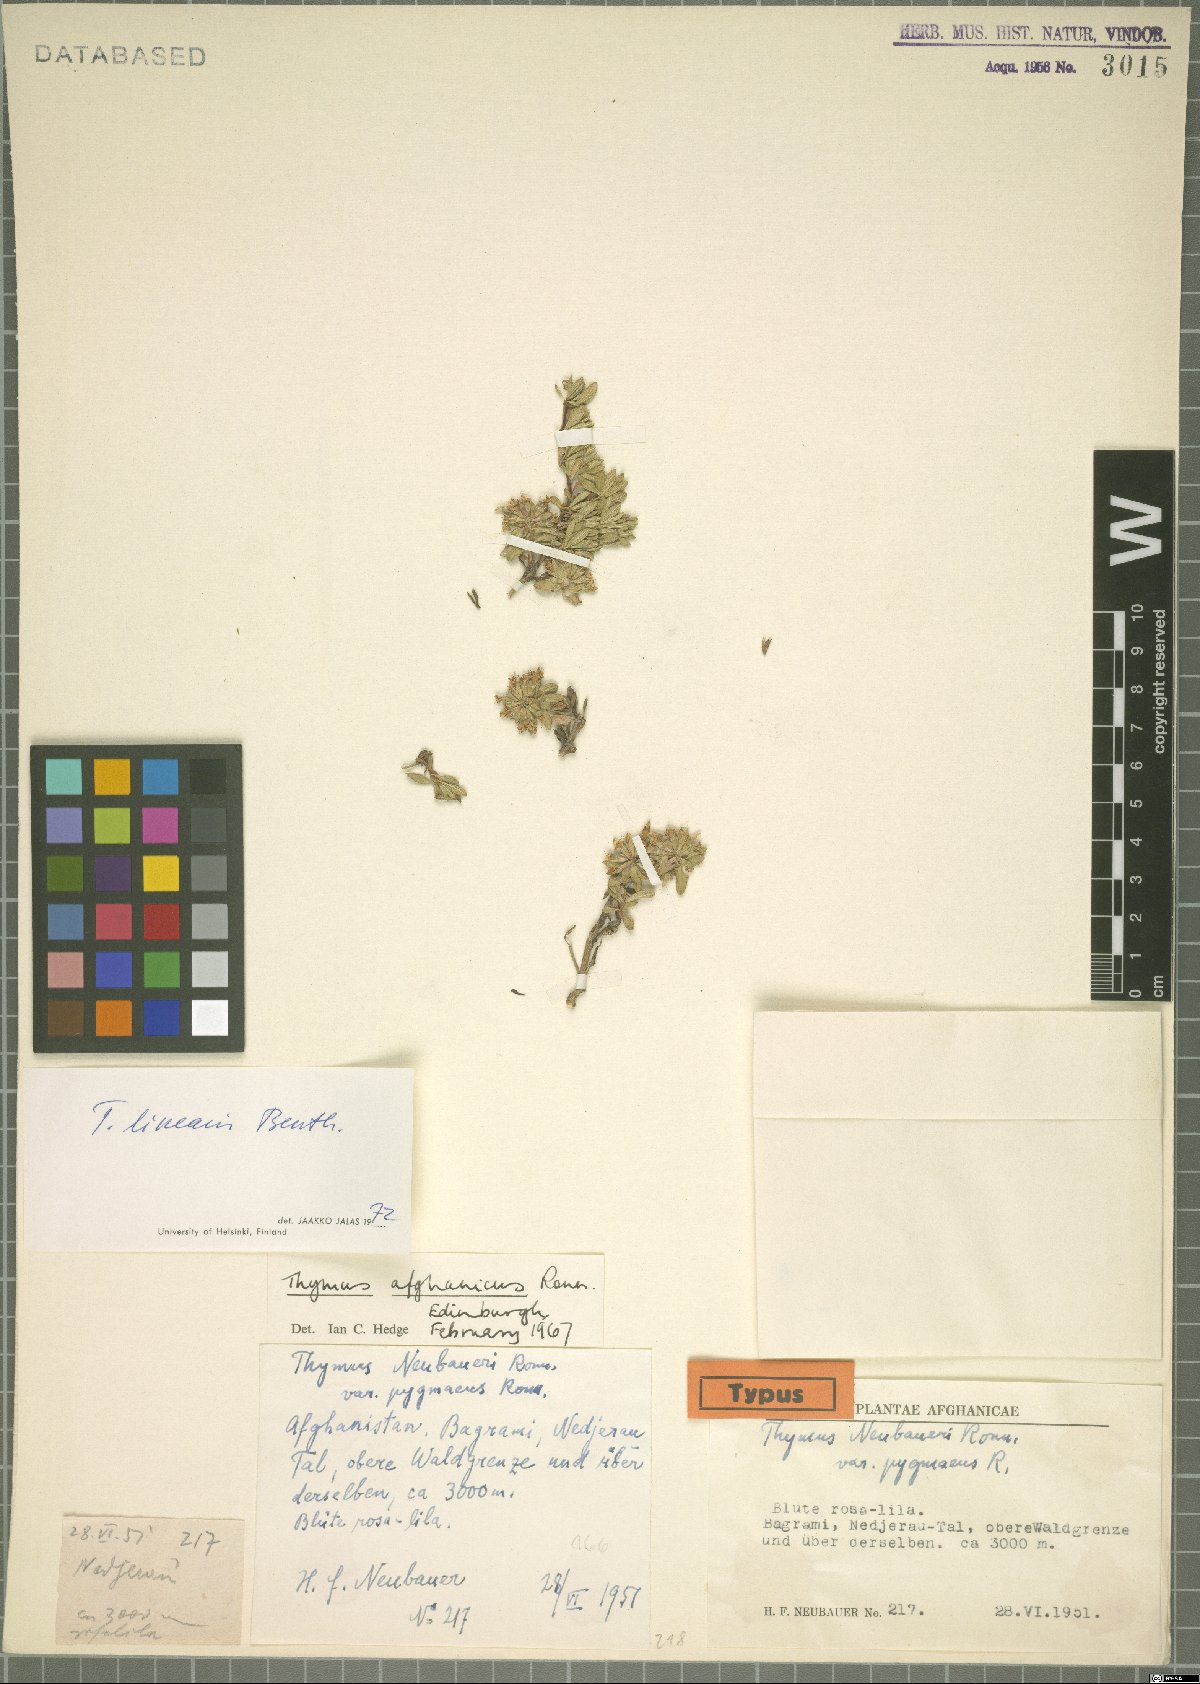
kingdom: Plantae
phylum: Tracheophyta
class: Magnoliopsida
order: Lamiales
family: Lamiaceae
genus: Thymus
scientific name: Thymus linearis
